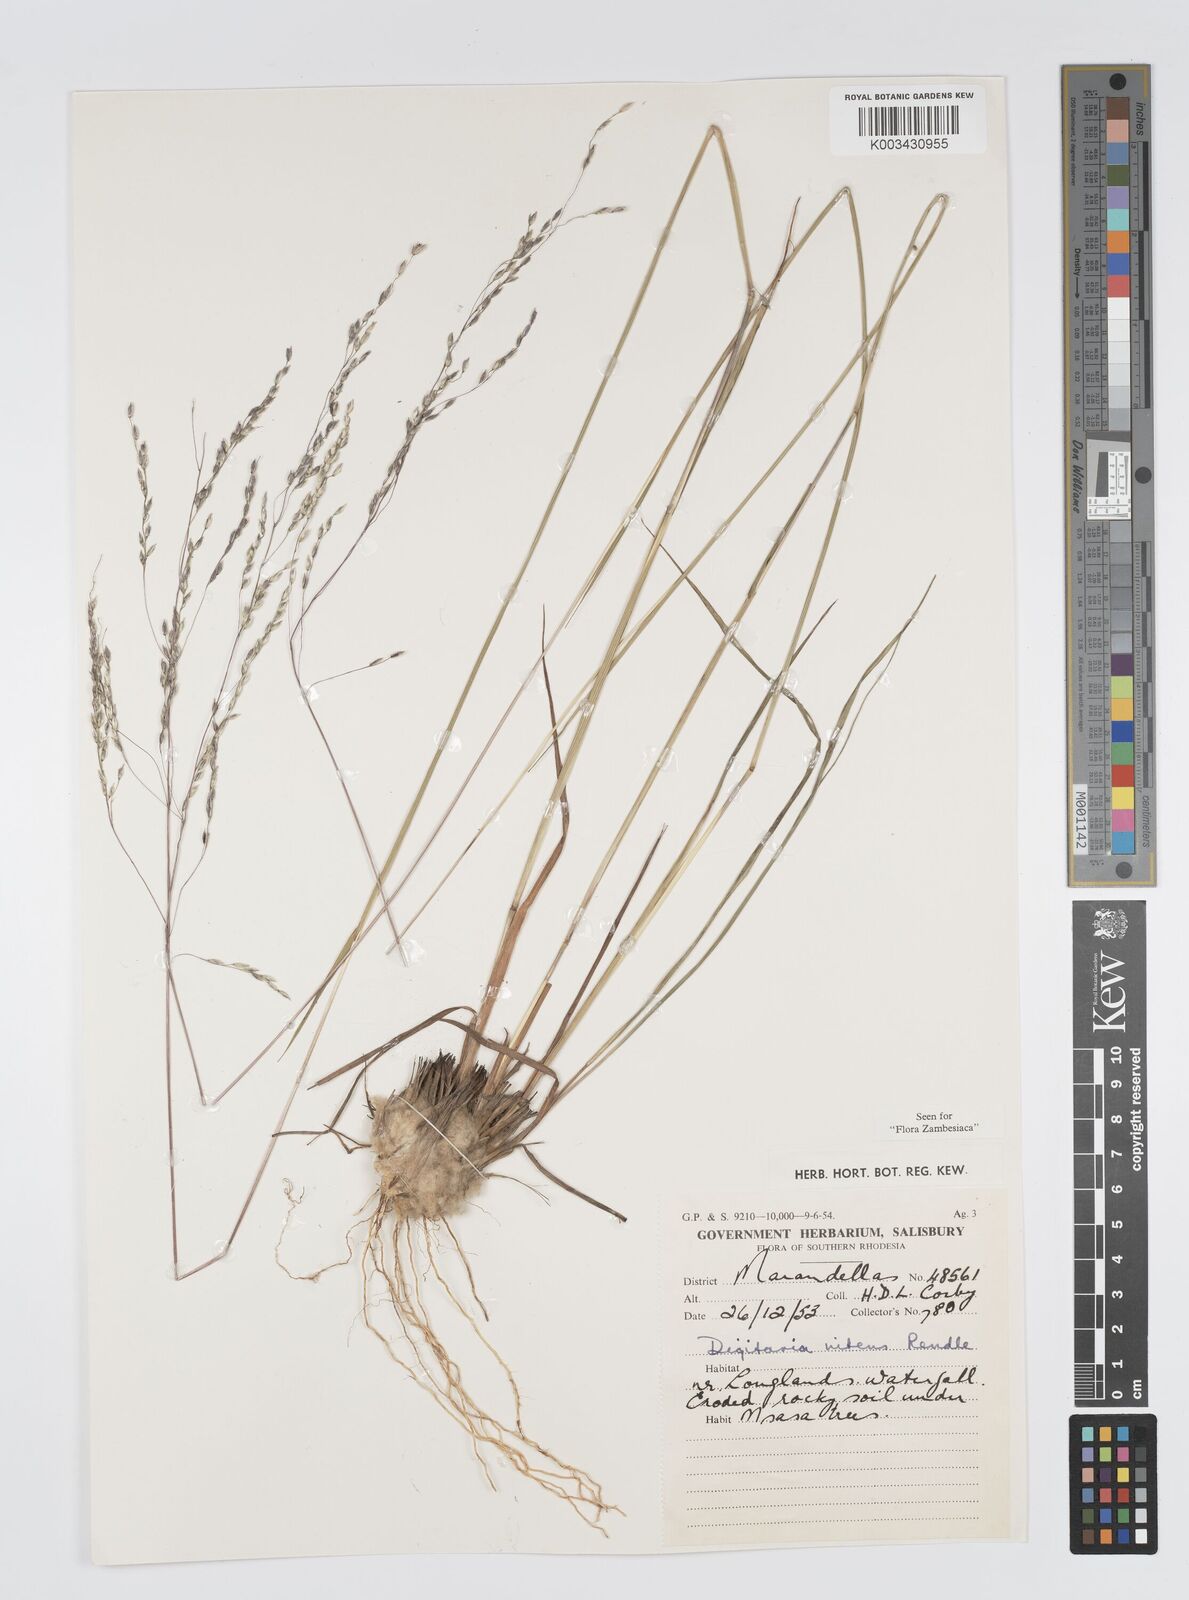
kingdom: Plantae
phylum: Tracheophyta
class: Liliopsida
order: Poales
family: Poaceae
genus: Digitaria
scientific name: Digitaria flaccida
